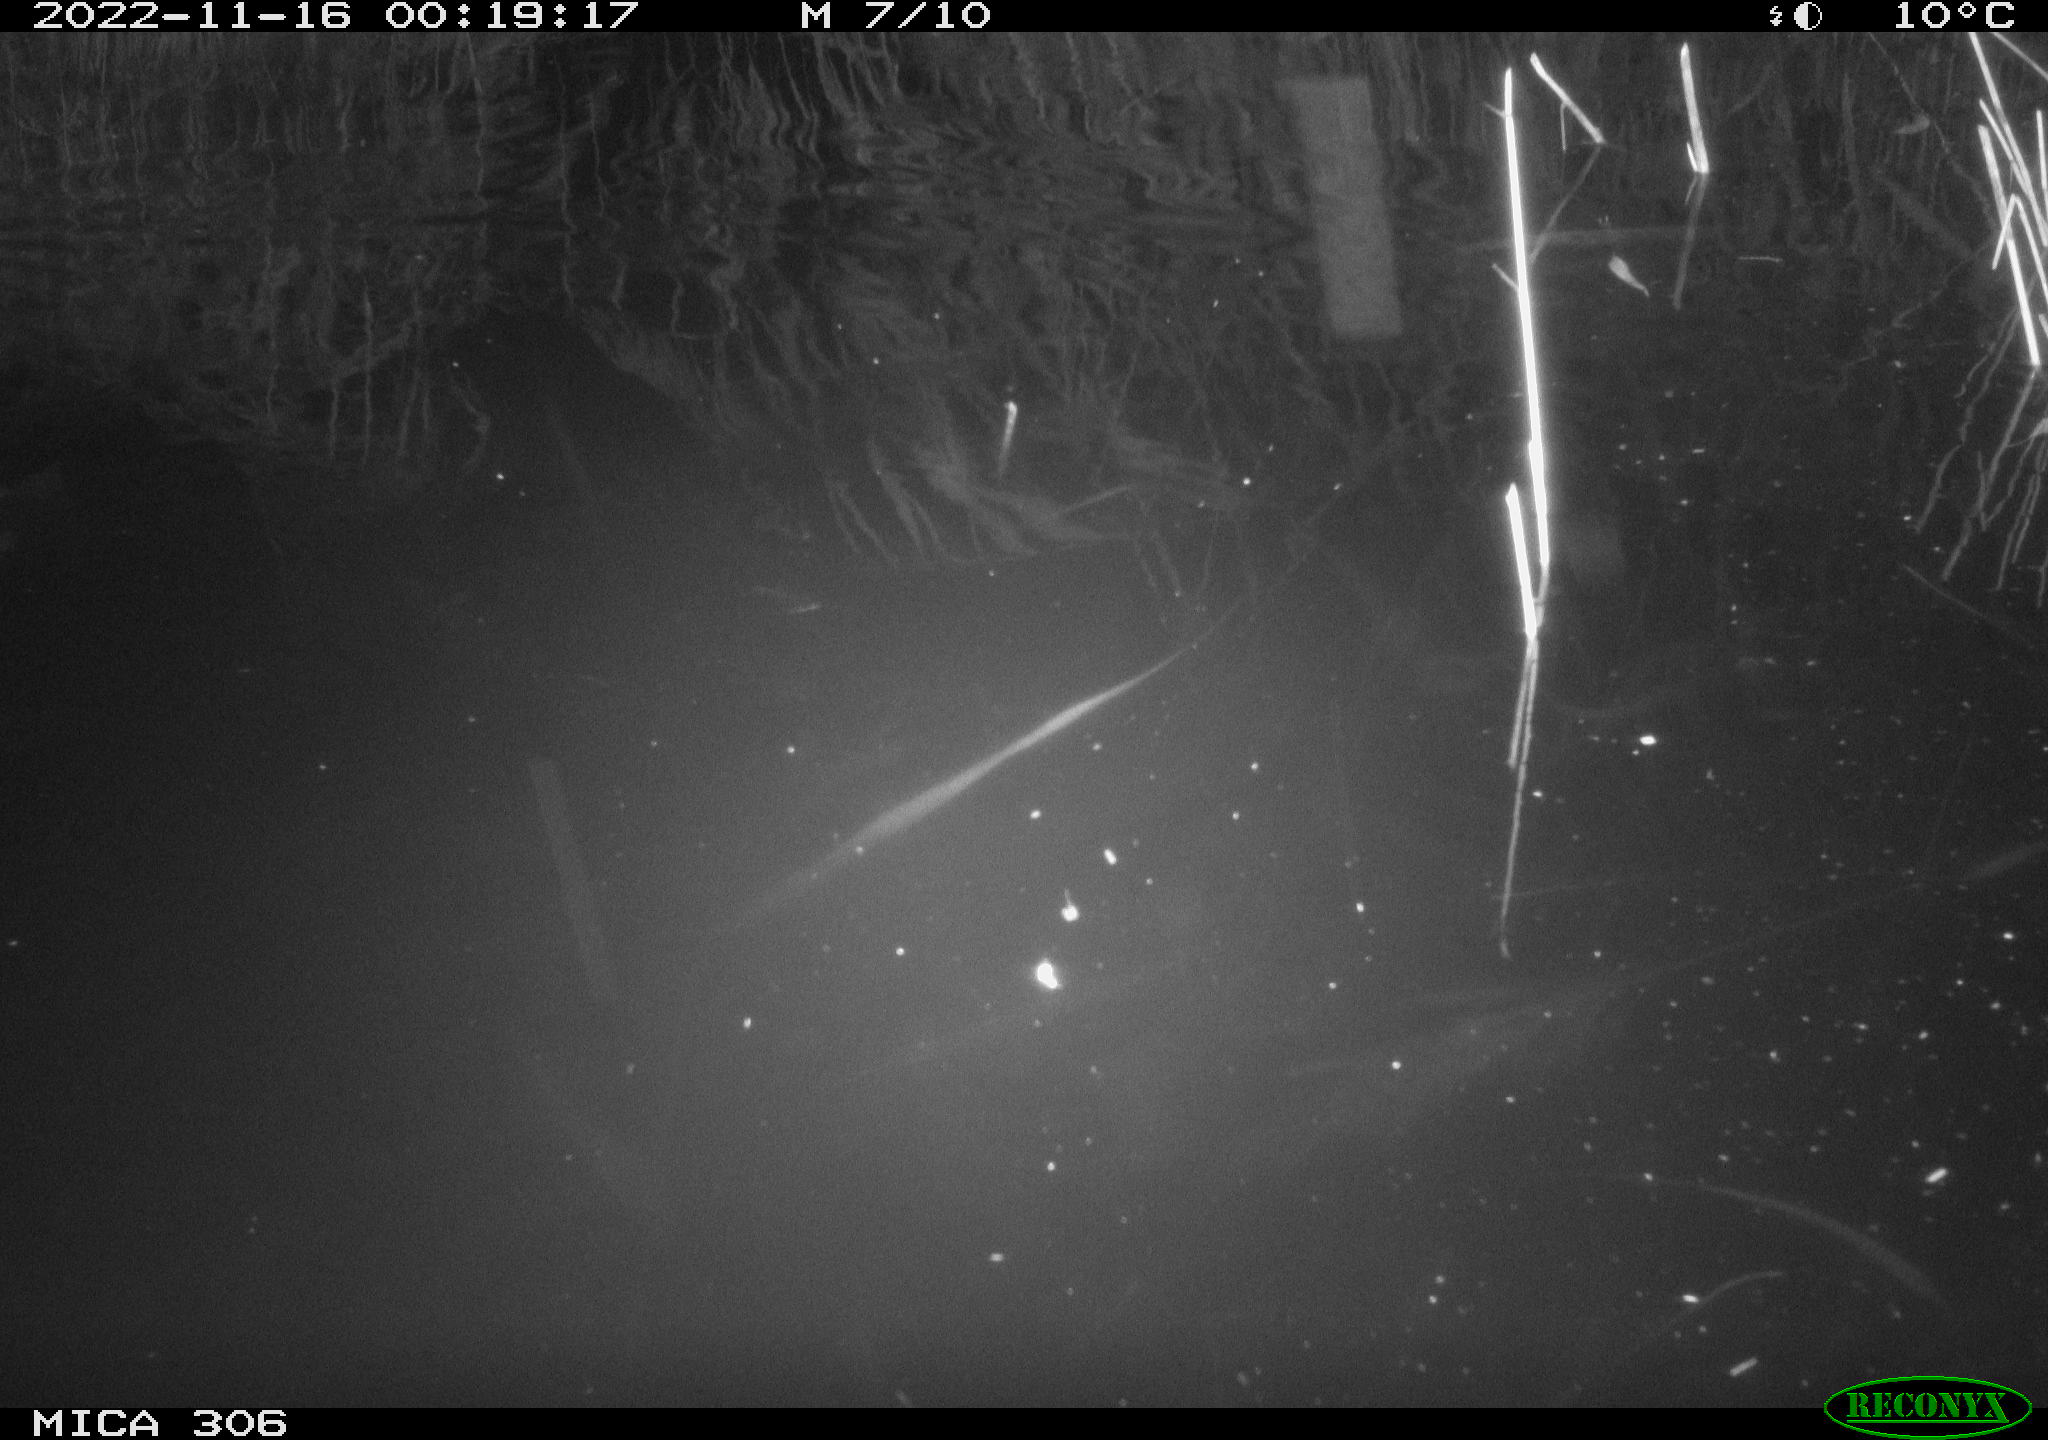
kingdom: Animalia
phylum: Chordata
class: Mammalia
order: Rodentia
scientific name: Rodentia
